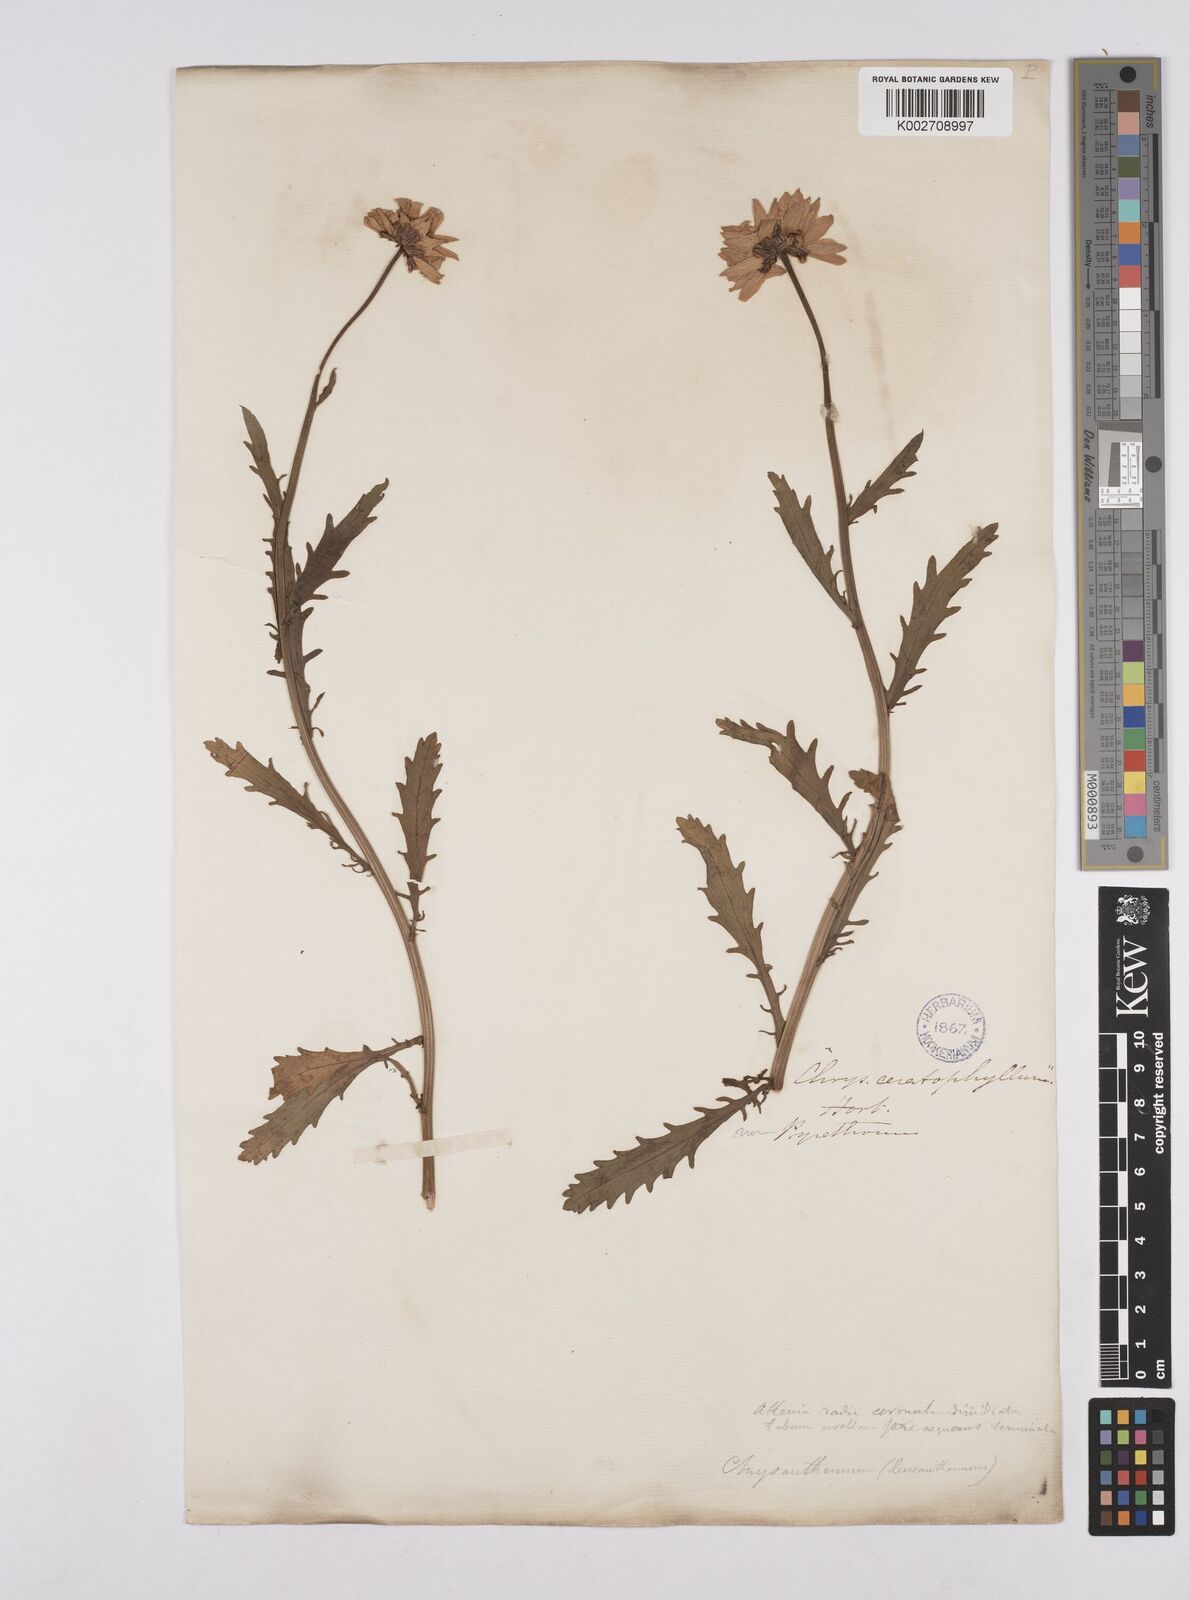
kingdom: Plantae
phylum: Tracheophyta
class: Magnoliopsida
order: Asterales
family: Asteraceae
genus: Leucanthemum
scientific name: Leucanthemum vulgare
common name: Oxeye daisy
